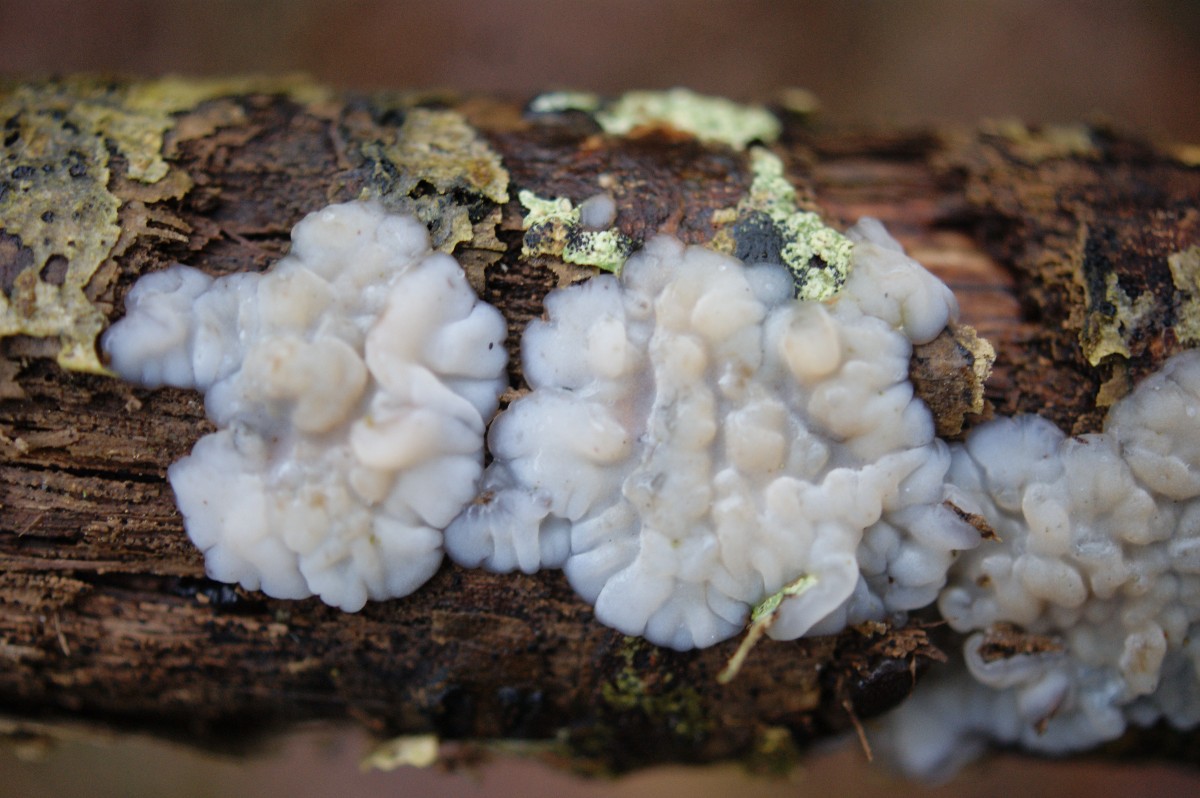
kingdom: Fungi
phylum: Basidiomycota
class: Agaricomycetes
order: Auriculariales
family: Auriculariaceae
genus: Exidia
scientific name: Exidia thuretiana
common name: hvidlig bævretop
